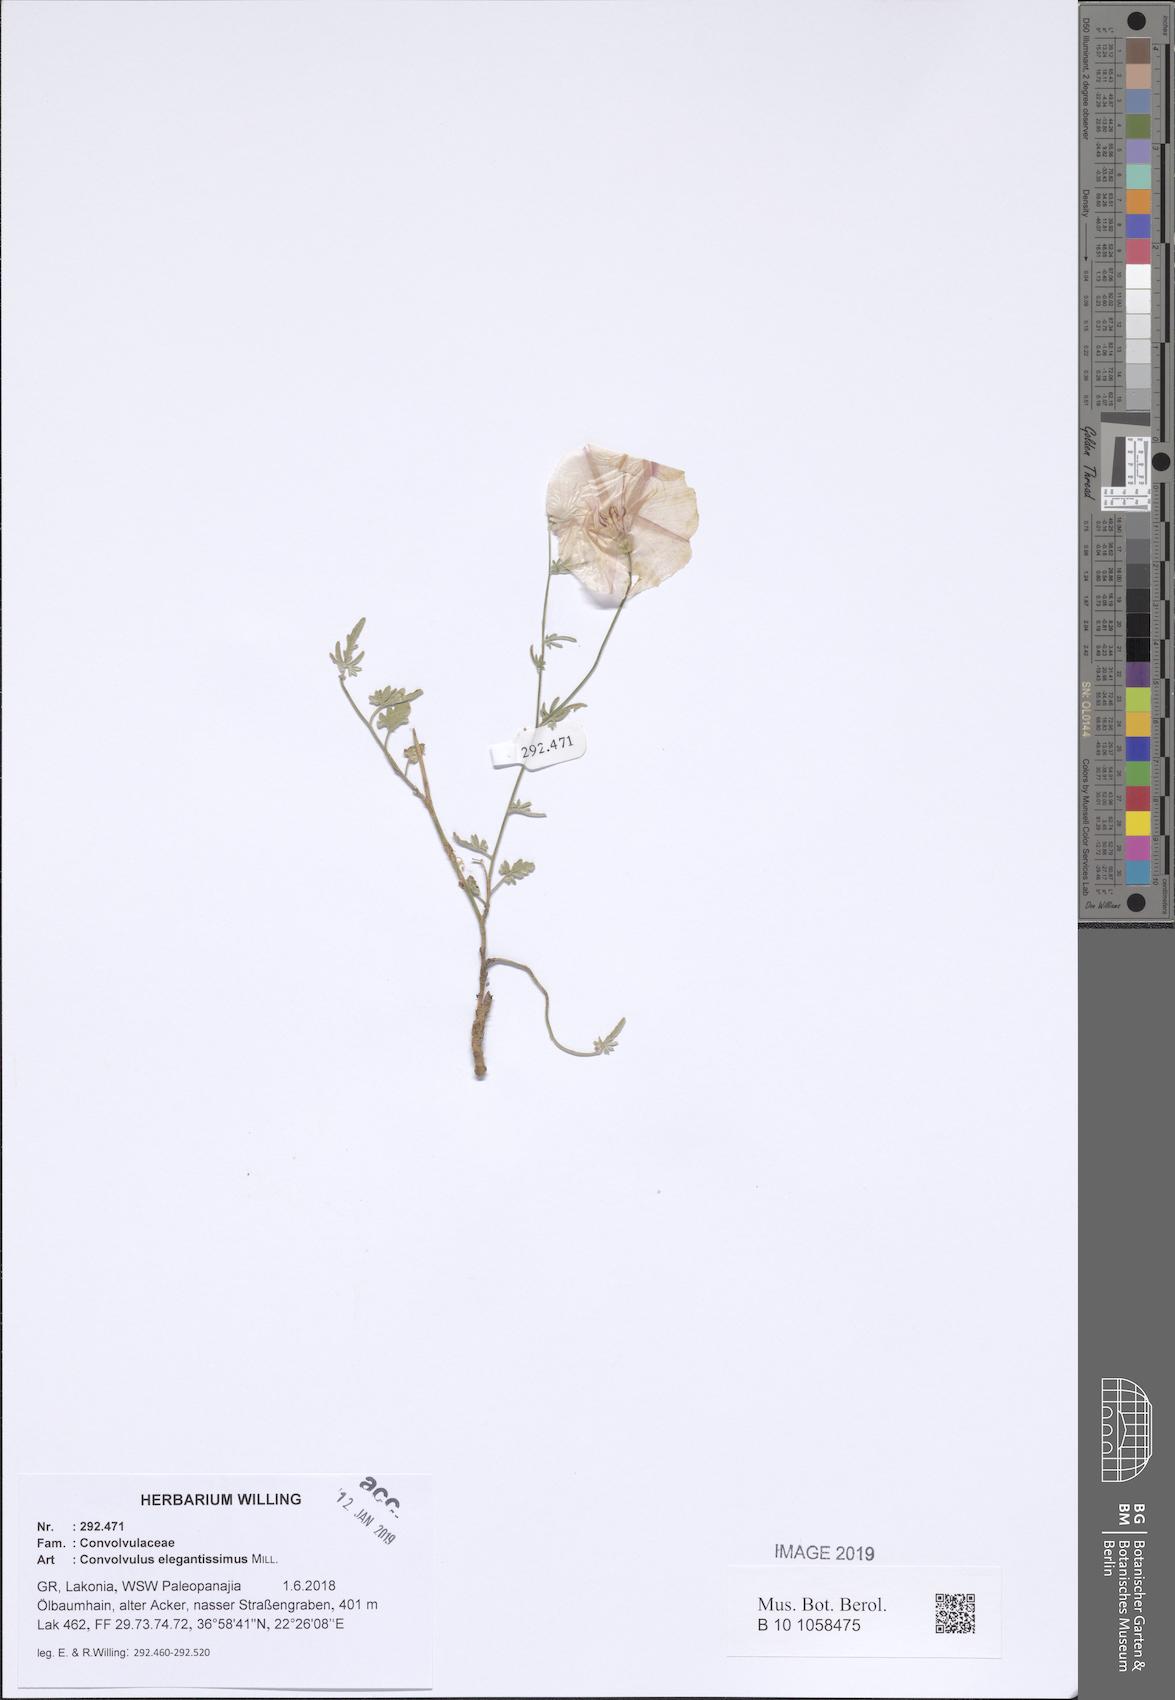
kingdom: Plantae
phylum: Tracheophyta
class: Magnoliopsida
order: Solanales
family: Convolvulaceae
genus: Convolvulus
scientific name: Convolvulus elegantissimus
